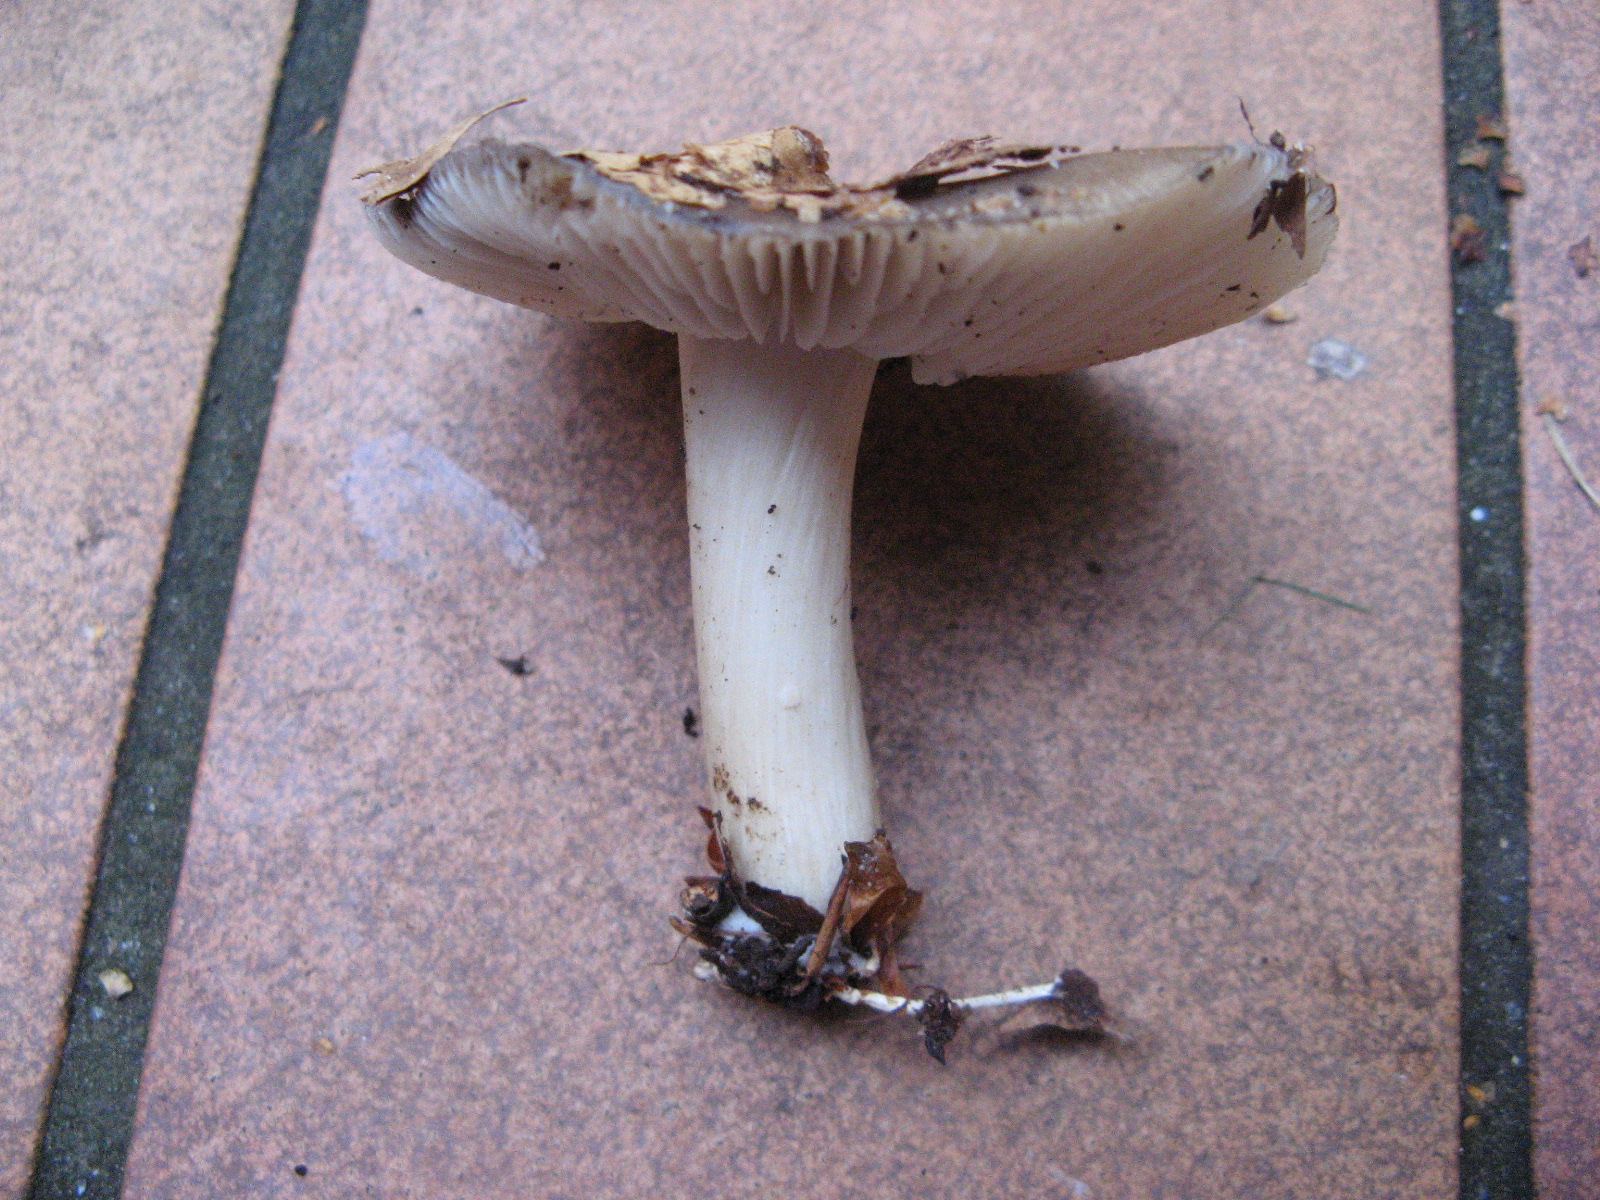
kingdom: Fungi
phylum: Basidiomycota
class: Agaricomycetes
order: Agaricales
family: Tricholomataceae
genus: Megacollybia
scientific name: Megacollybia platyphylla
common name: bredbladet væbnerhat
